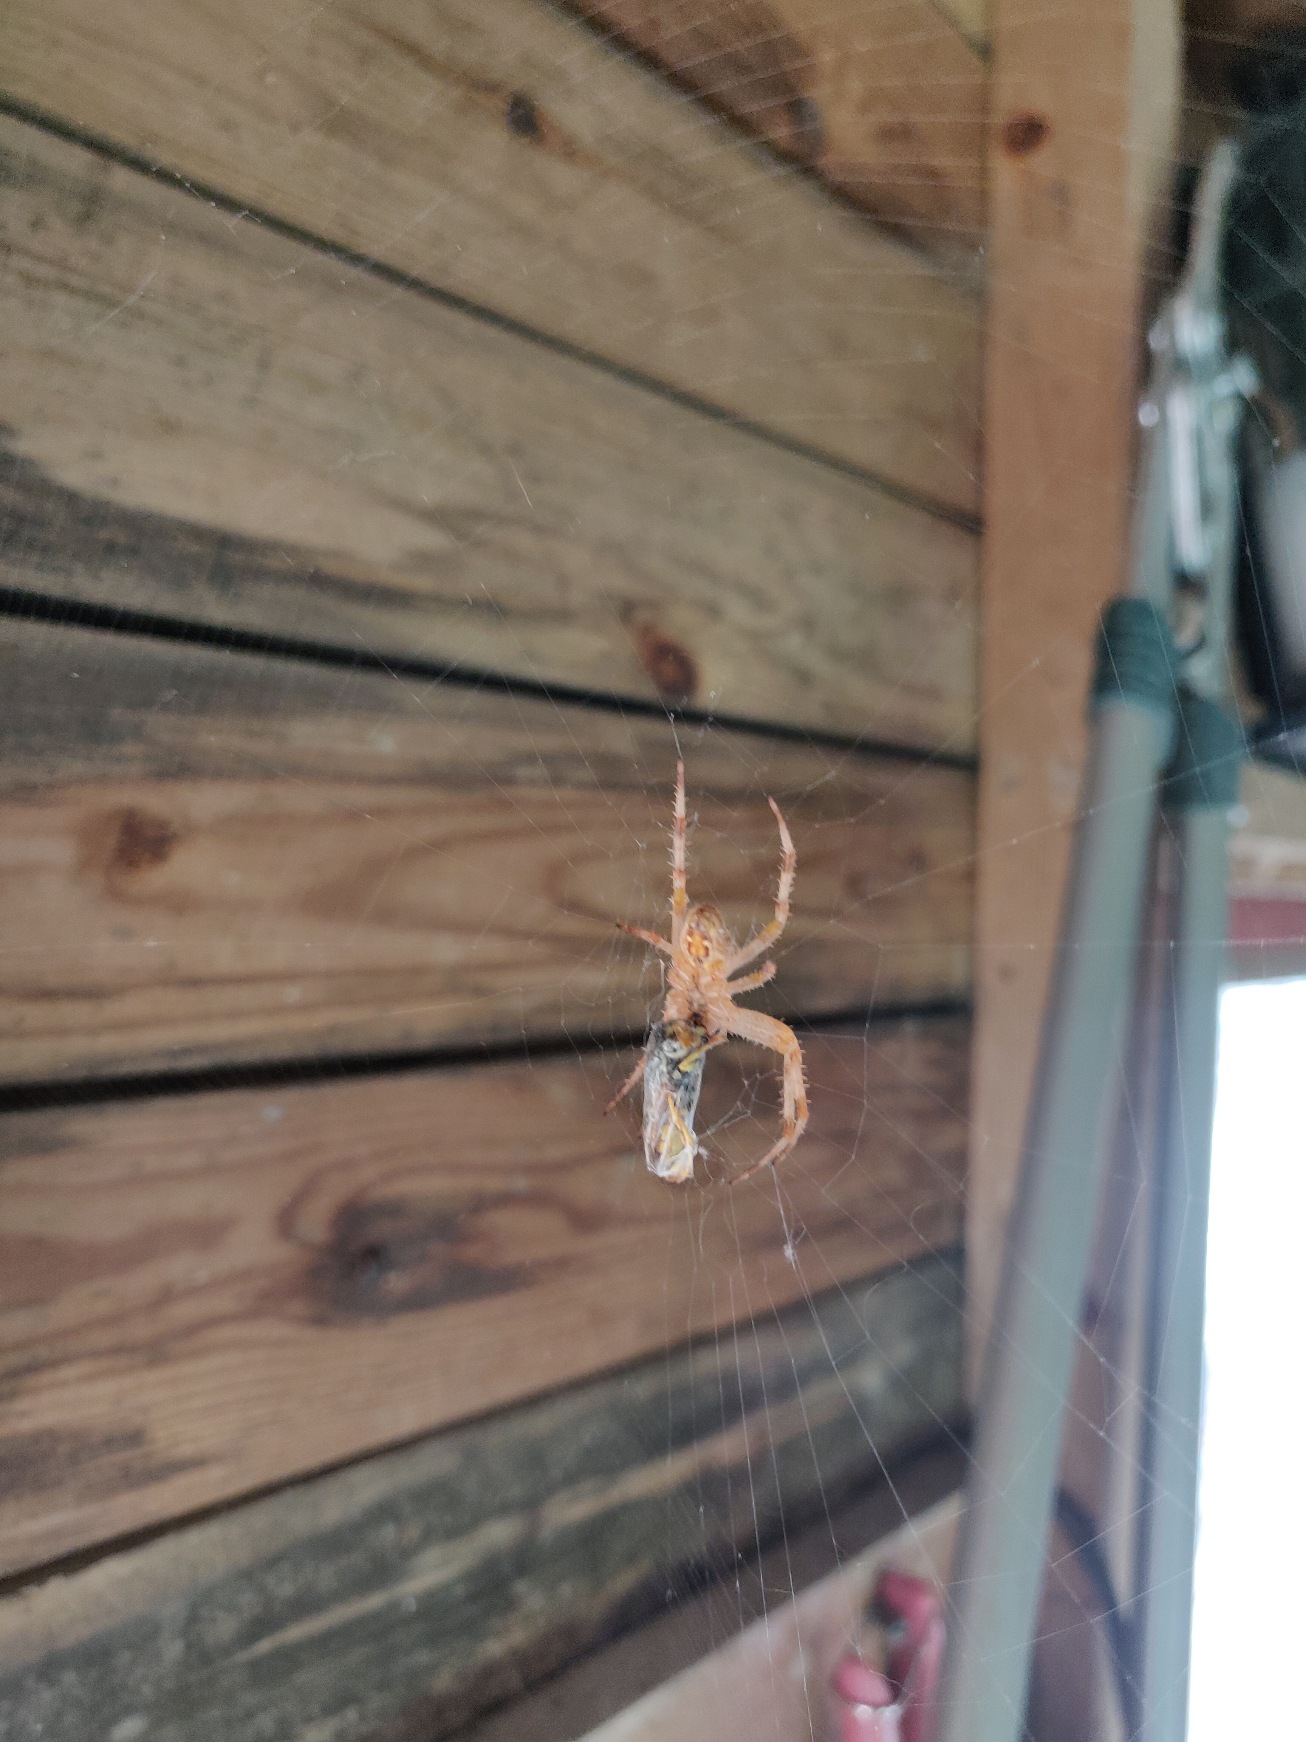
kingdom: Animalia
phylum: Arthropoda
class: Arachnida
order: Araneae
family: Araneidae
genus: Araneus
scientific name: Araneus diadematus
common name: Korsedderkop
